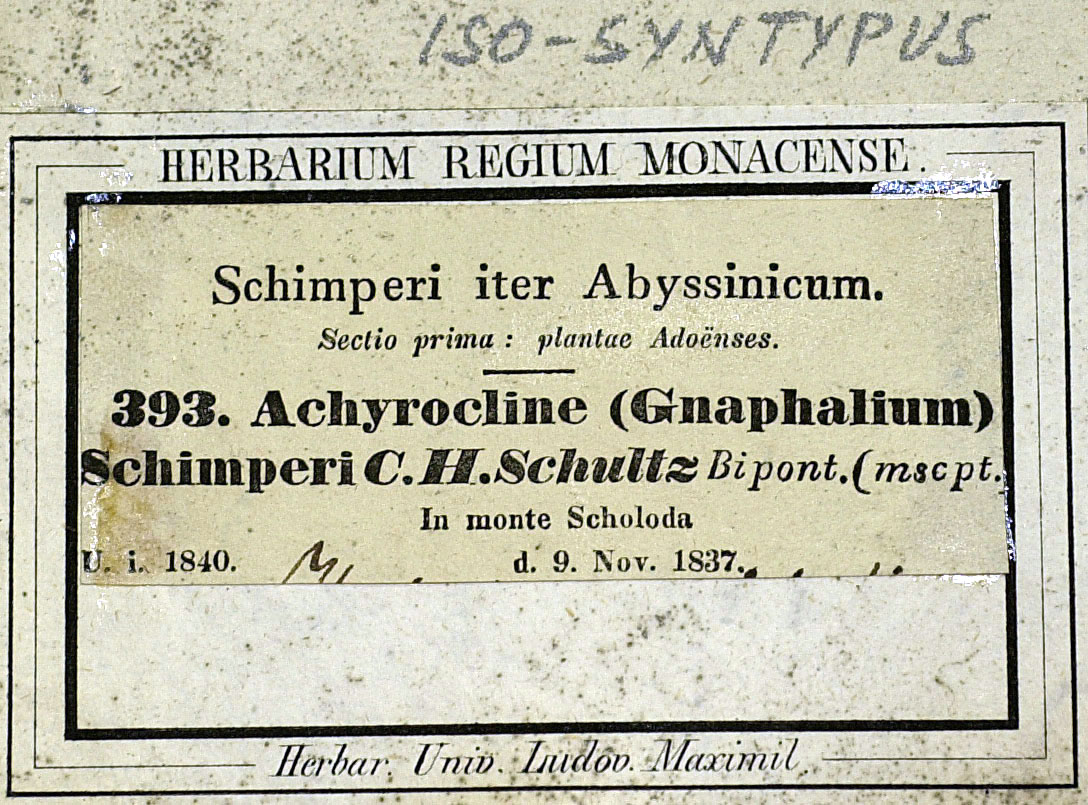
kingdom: Plantae
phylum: Tracheophyta
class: Magnoliopsida
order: Asterales
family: Asteraceae
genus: Helichrysum
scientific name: Helichrysum schimperi
